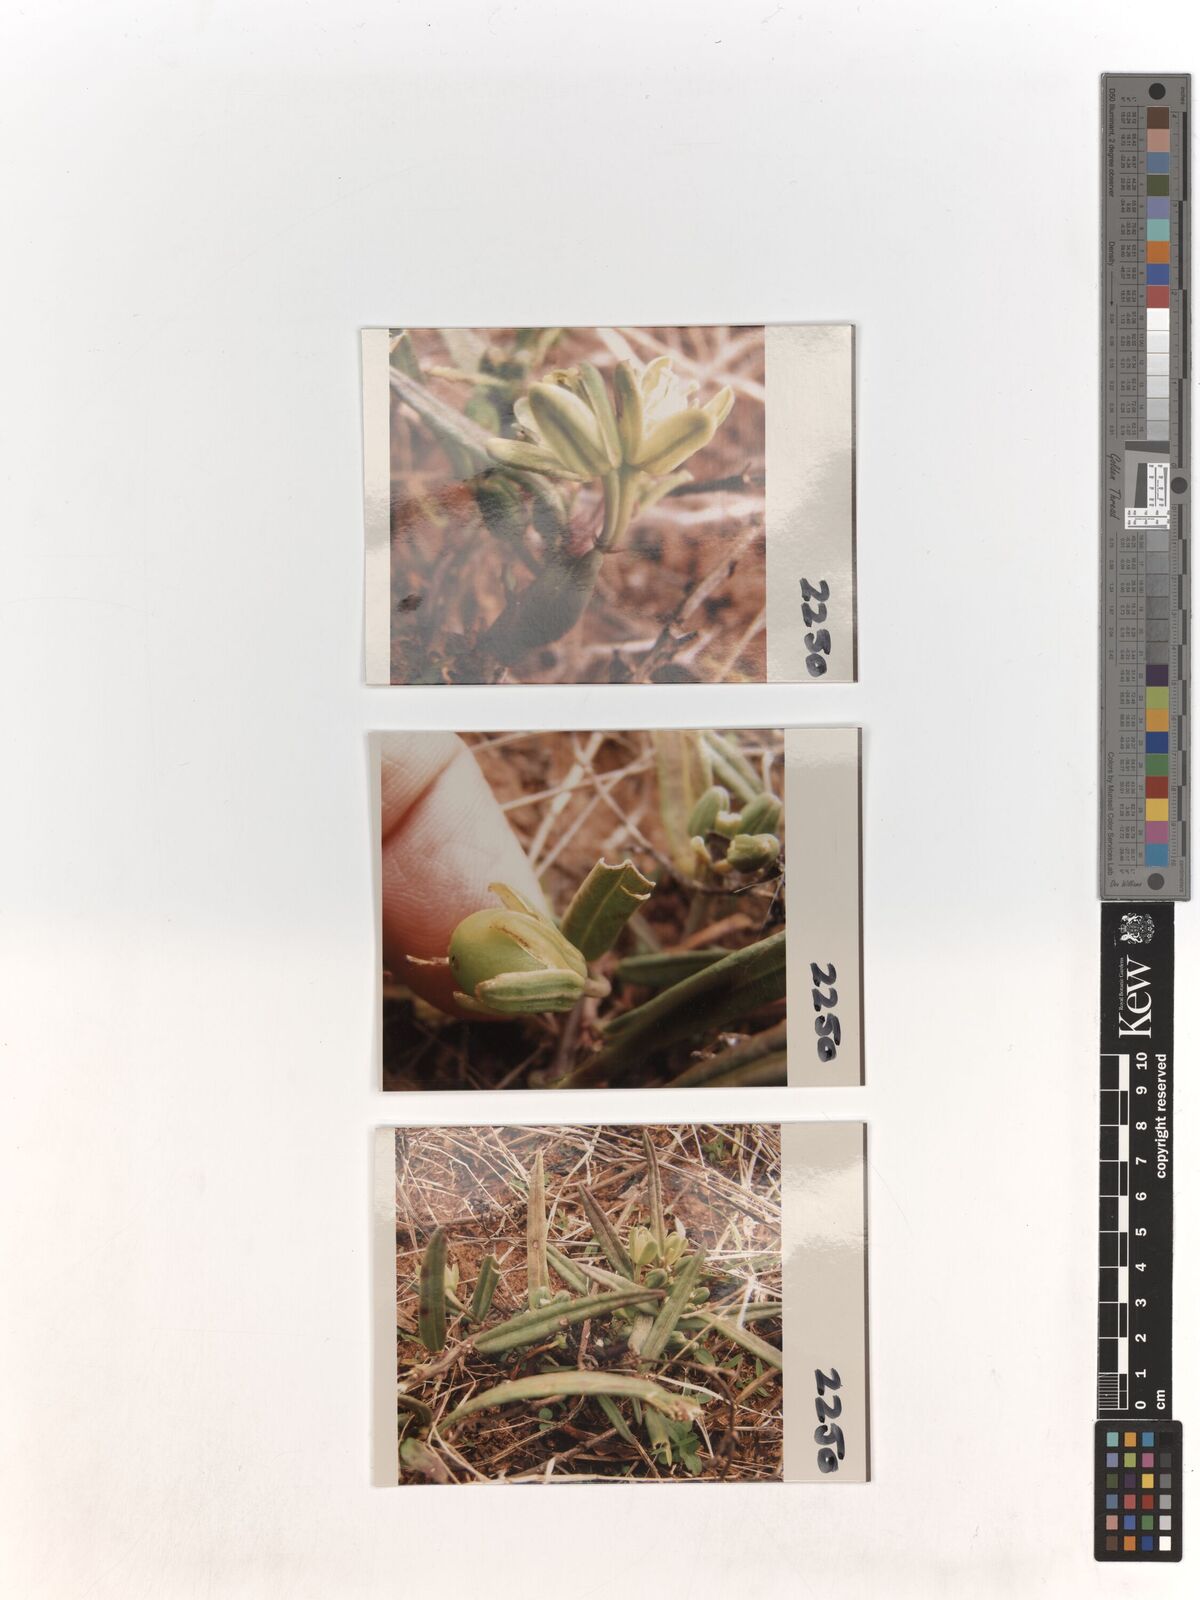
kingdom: Plantae
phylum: Tracheophyta
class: Magnoliopsida
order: Malpighiales
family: Passifloraceae
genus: Basananthe
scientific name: Basananthe sandersonii
